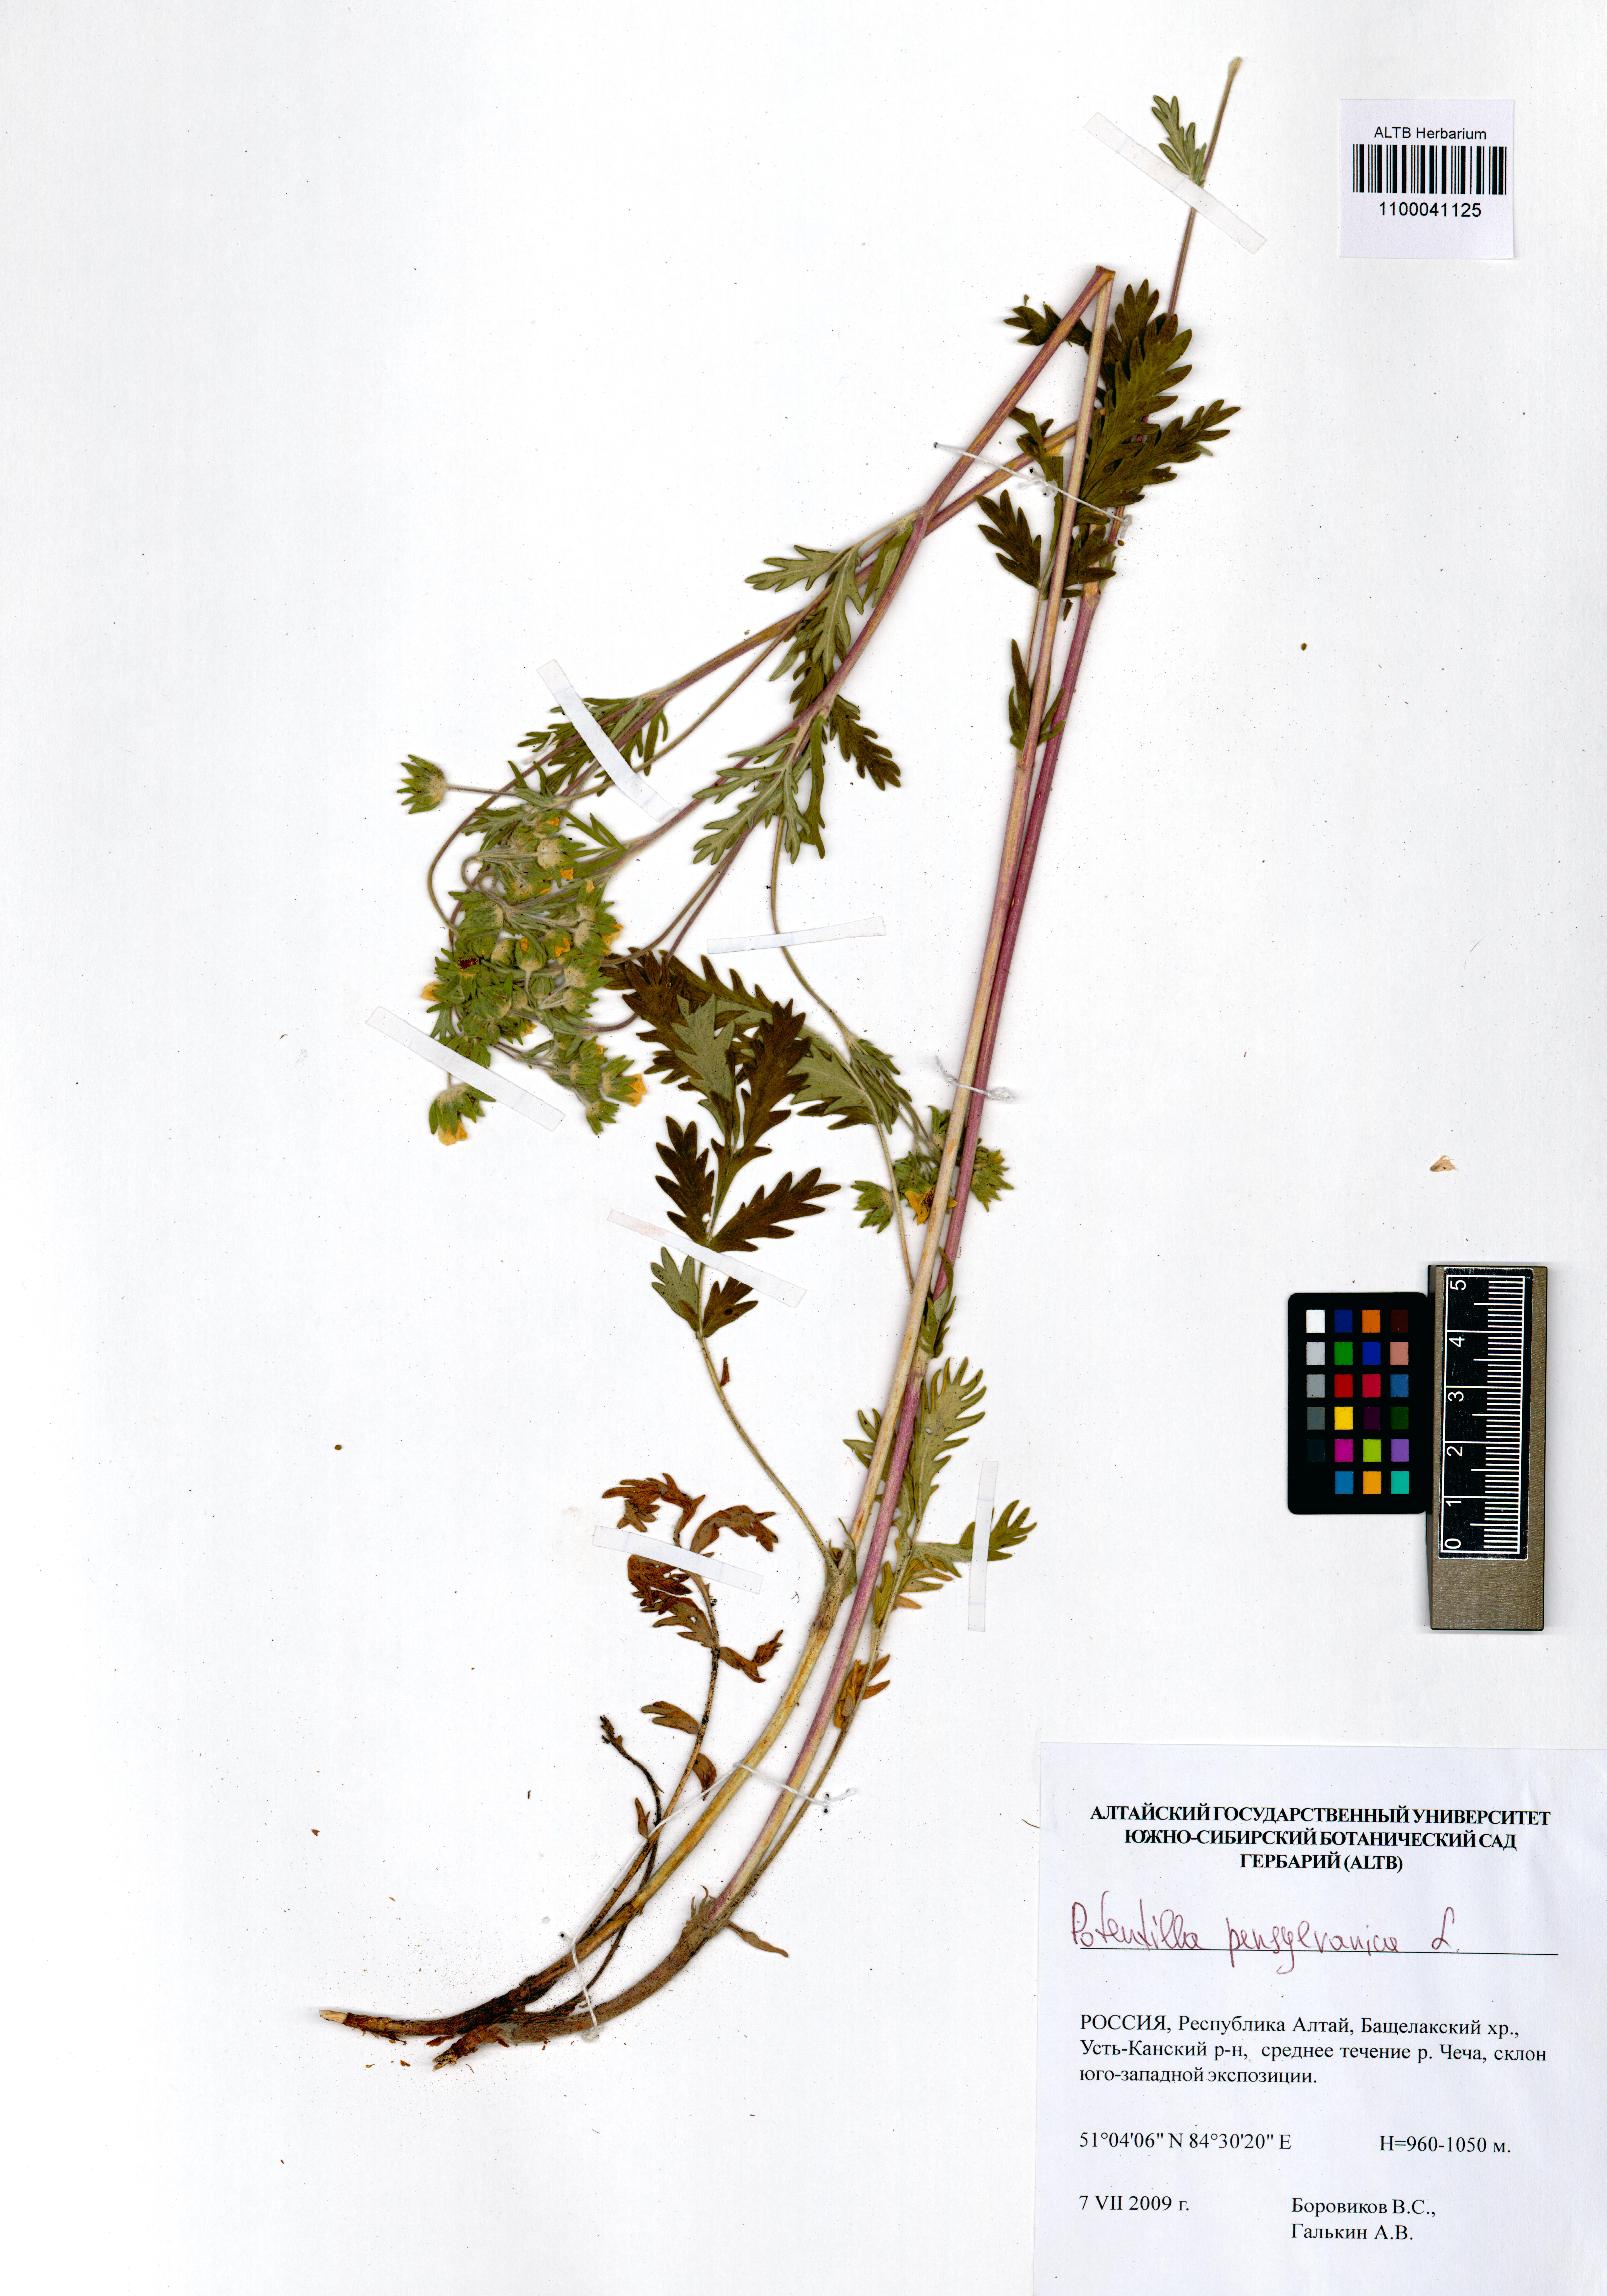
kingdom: Plantae
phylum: Tracheophyta
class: Magnoliopsida
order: Rosales
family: Rosaceae
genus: Potentilla
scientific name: Potentilla pensylvanica
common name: Pennsylvania cinquefoil
